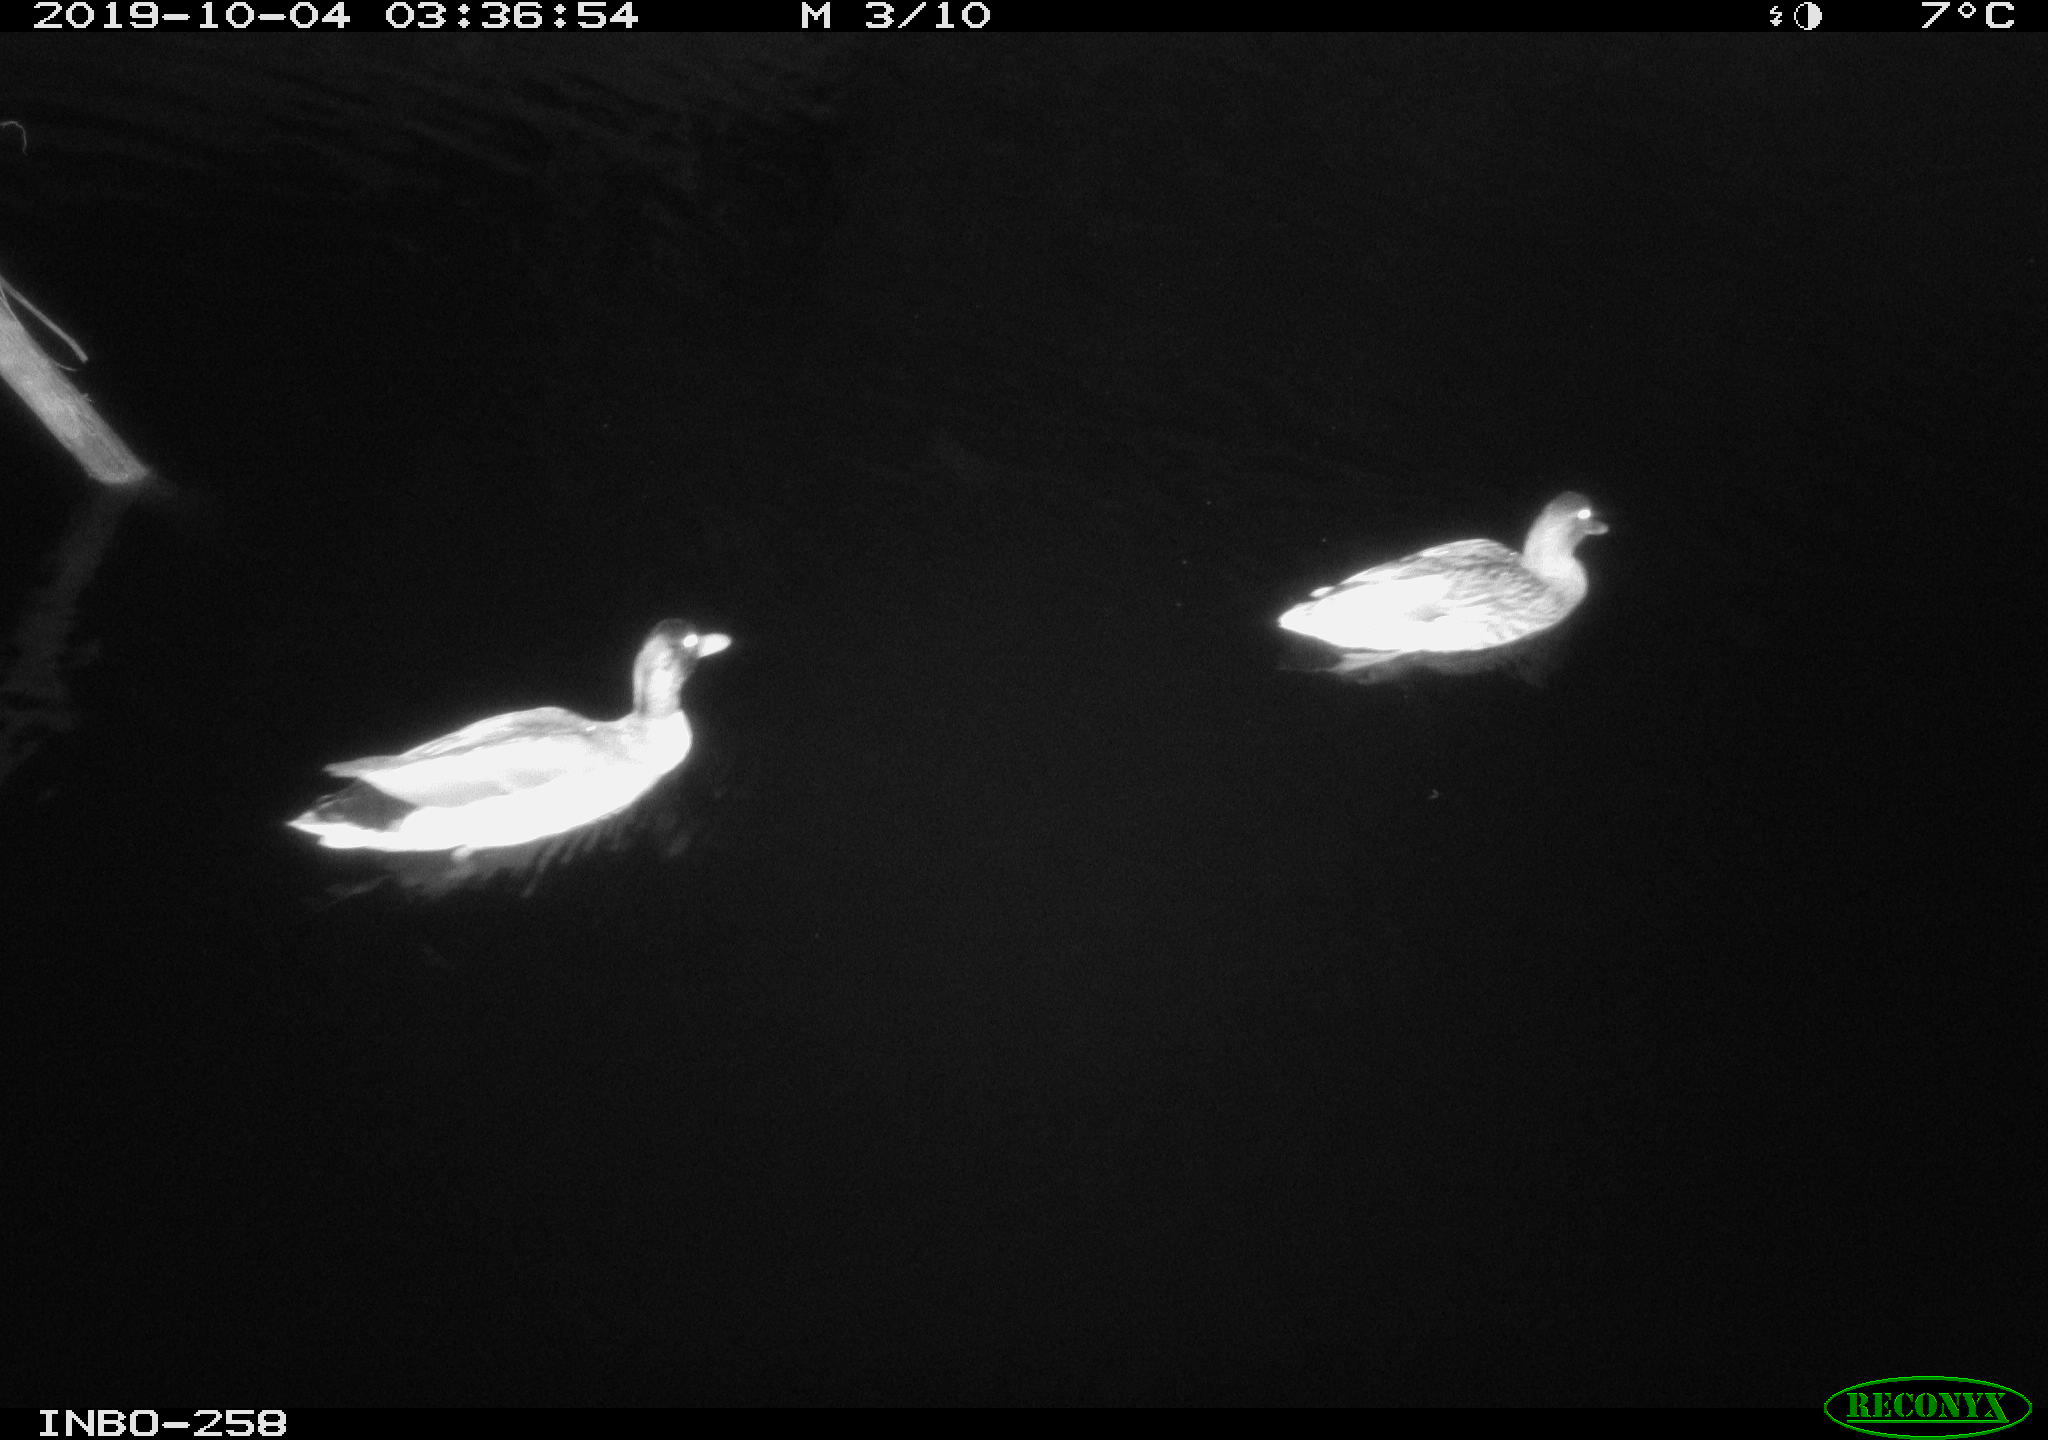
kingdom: Animalia
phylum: Chordata
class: Aves
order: Anseriformes
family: Anatidae
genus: Anas
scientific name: Anas platyrhynchos
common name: Mallard
